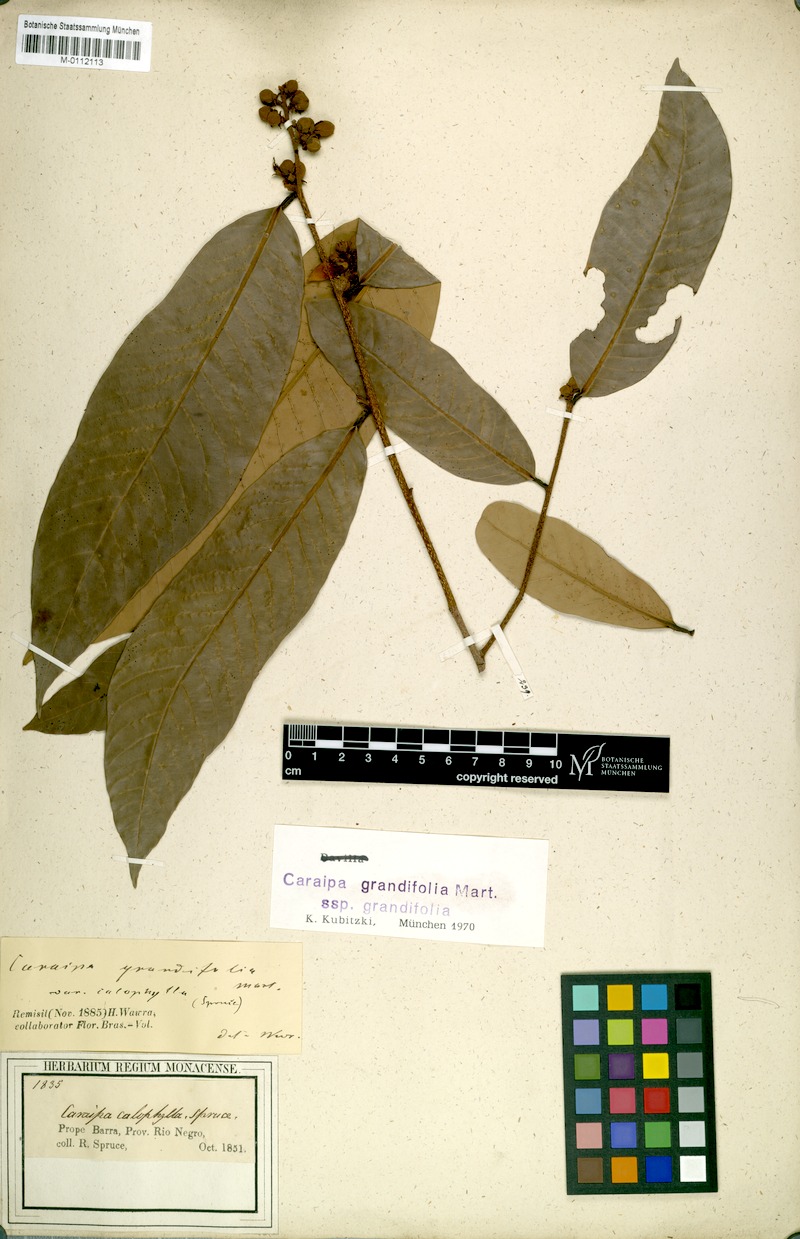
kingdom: Plantae
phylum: Tracheophyta
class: Magnoliopsida
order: Malpighiales
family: Calophyllaceae
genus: Caraipa
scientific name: Caraipa grandifolia
